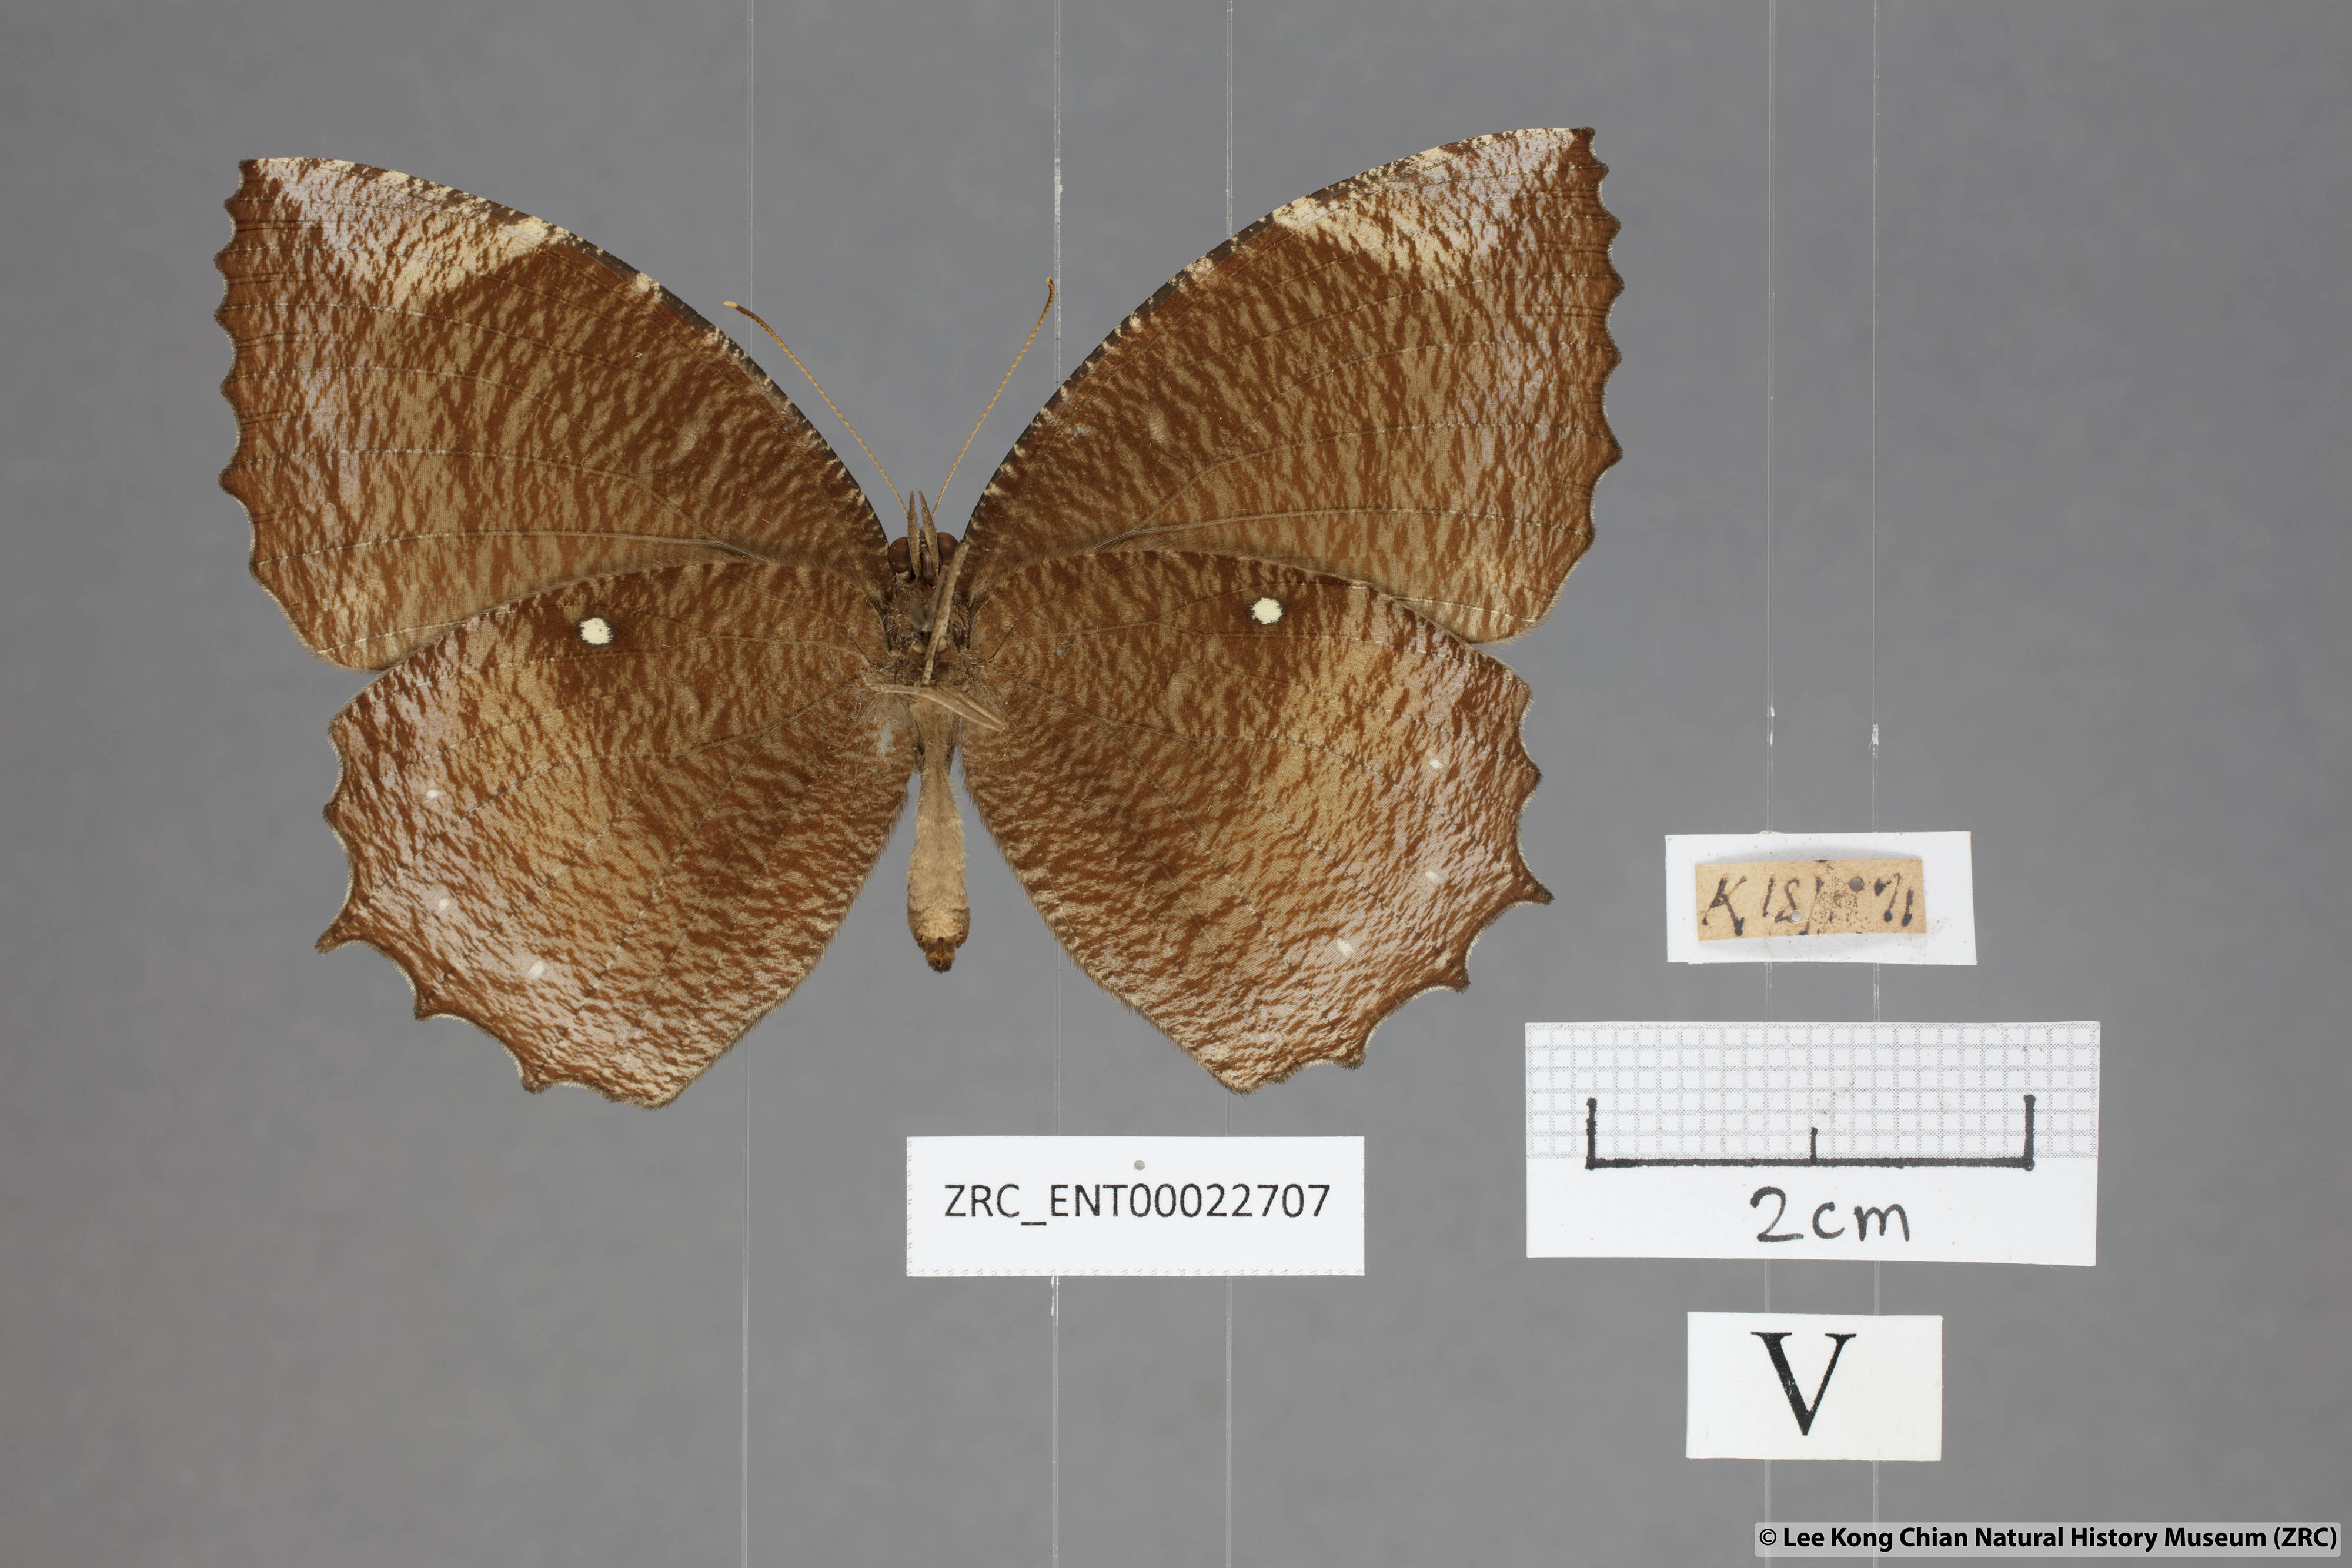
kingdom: Animalia
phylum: Arthropoda
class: Insecta
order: Lepidoptera
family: Nymphalidae
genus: Elymnias
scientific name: Elymnias hypermnestra
